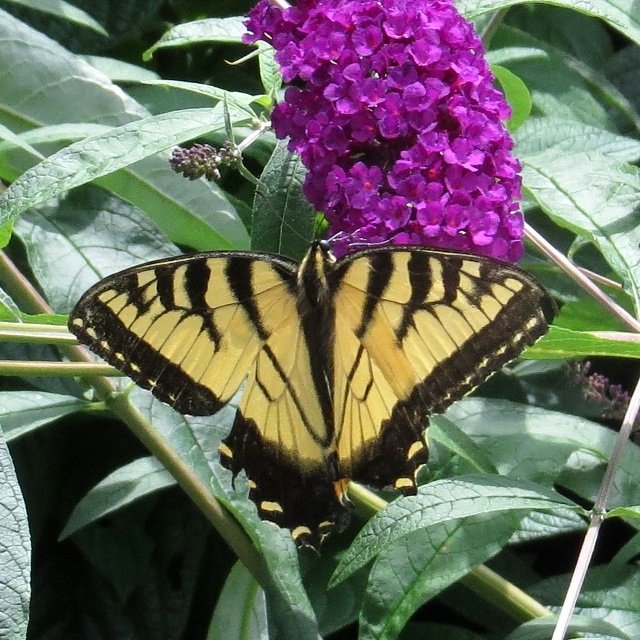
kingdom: Animalia
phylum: Arthropoda
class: Insecta
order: Lepidoptera
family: Papilionidae
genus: Pterourus
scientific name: Pterourus glaucus
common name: Eastern Tiger Swallowtail
